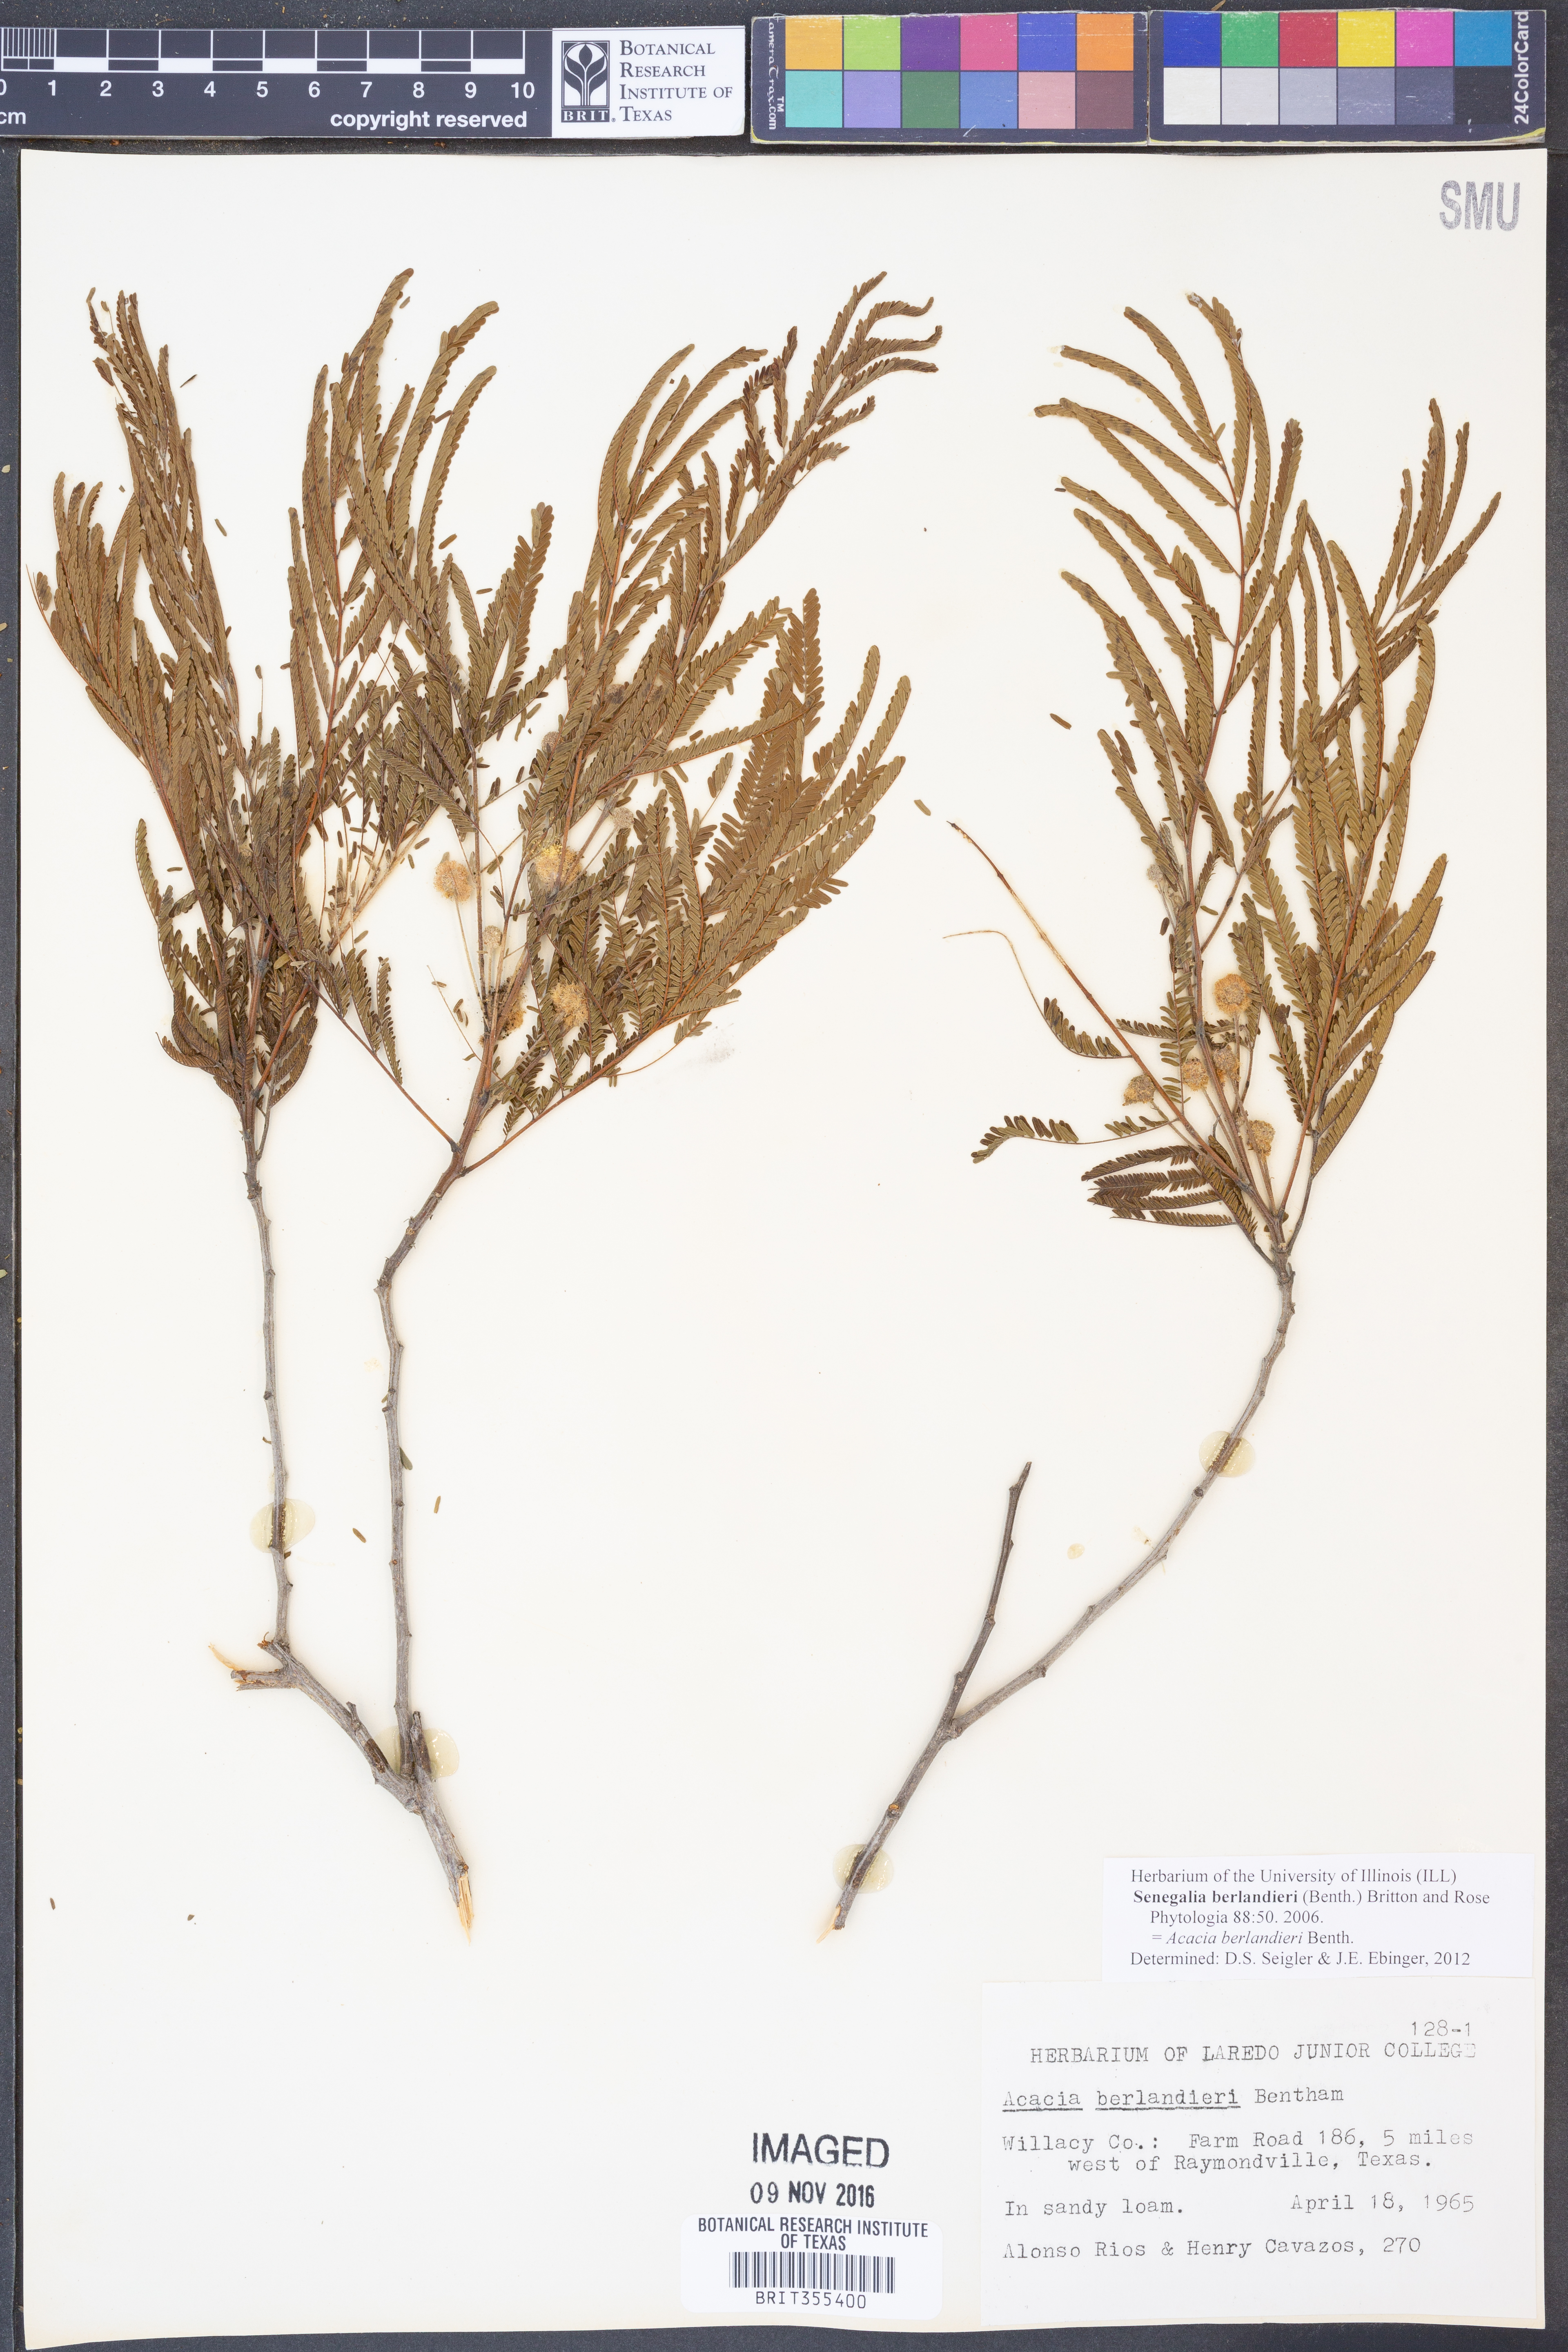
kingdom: Plantae
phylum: Tracheophyta
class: Magnoliopsida
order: Fabales
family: Fabaceae
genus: Senegalia
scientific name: Senegalia berlandieri
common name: Berlandier acacia
